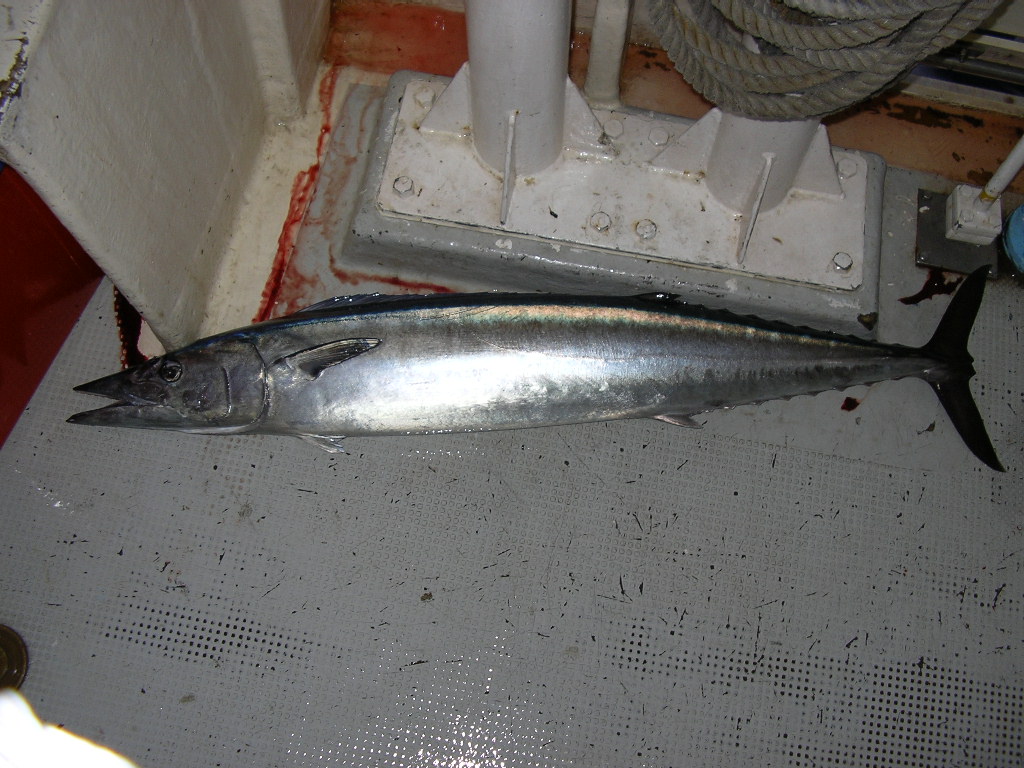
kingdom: Animalia
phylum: Chordata
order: Perciformes
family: Scombridae
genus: Acanthocybium
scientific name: Acanthocybium solandri
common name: Wahoo
